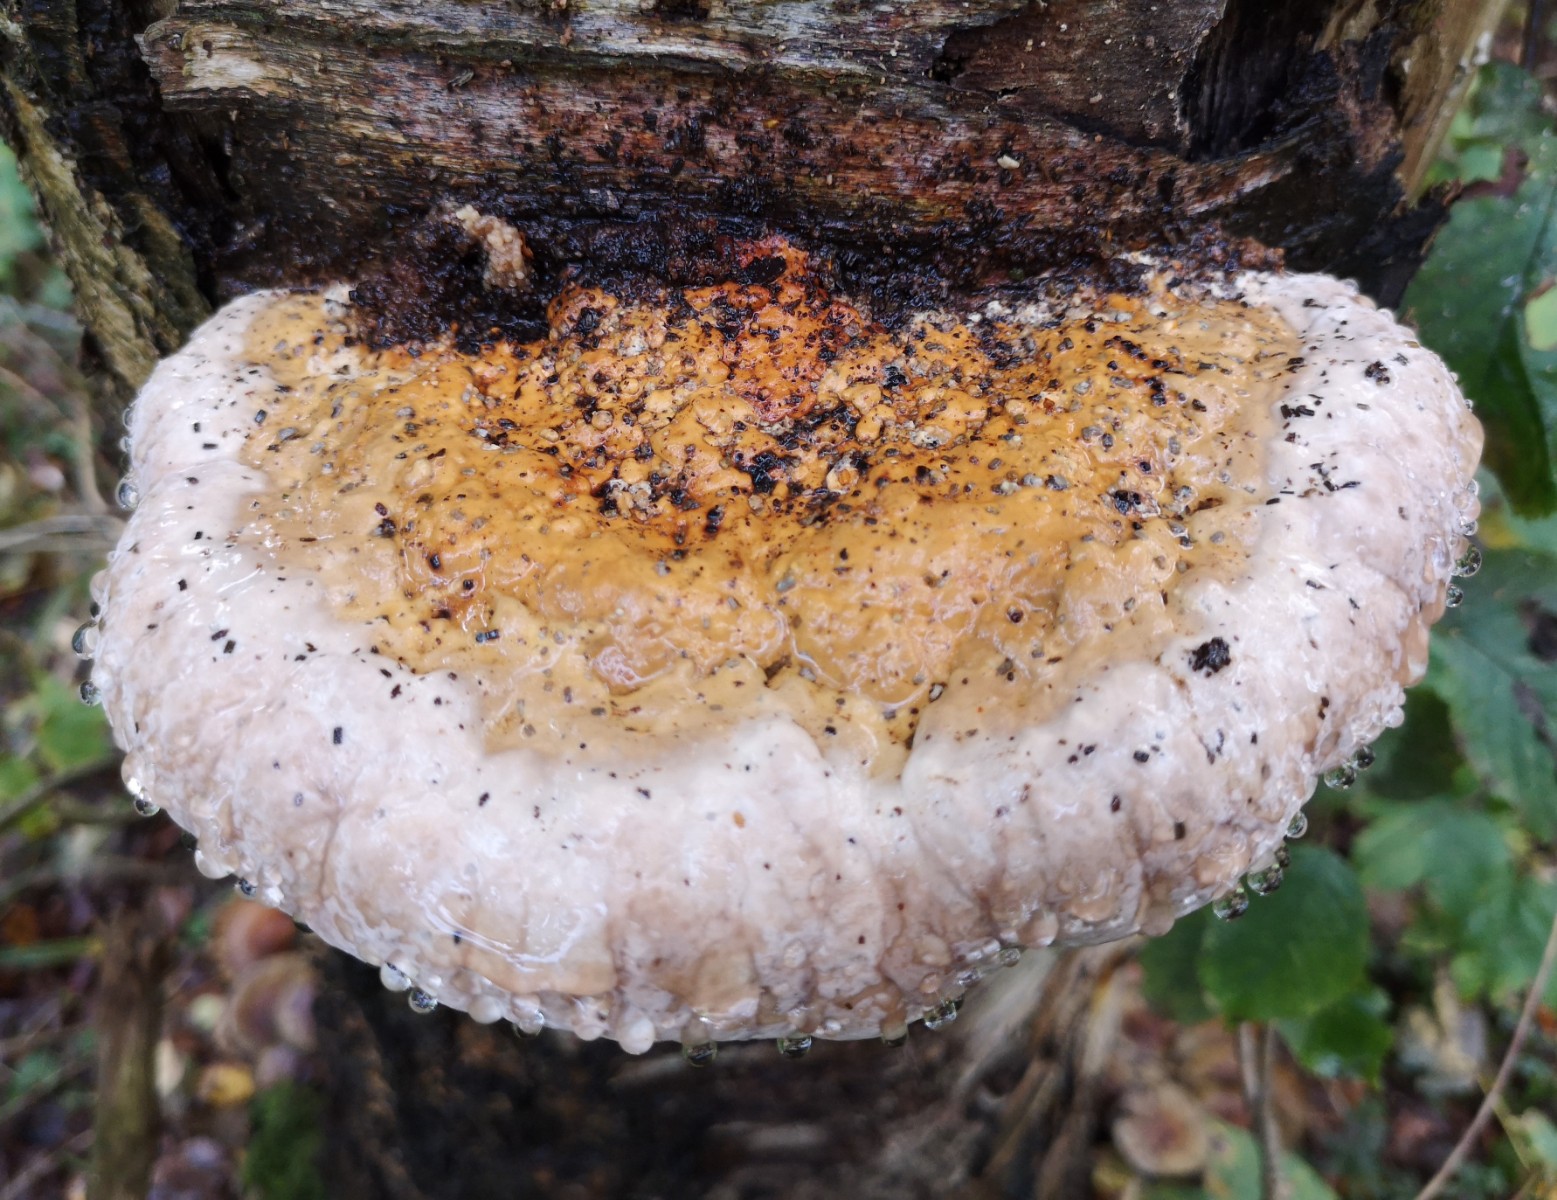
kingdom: Fungi
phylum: Basidiomycota
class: Agaricomycetes
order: Polyporales
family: Fomitopsidaceae
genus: Fomitopsis
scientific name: Fomitopsis pinicola
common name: randbæltet hovporesvamp
